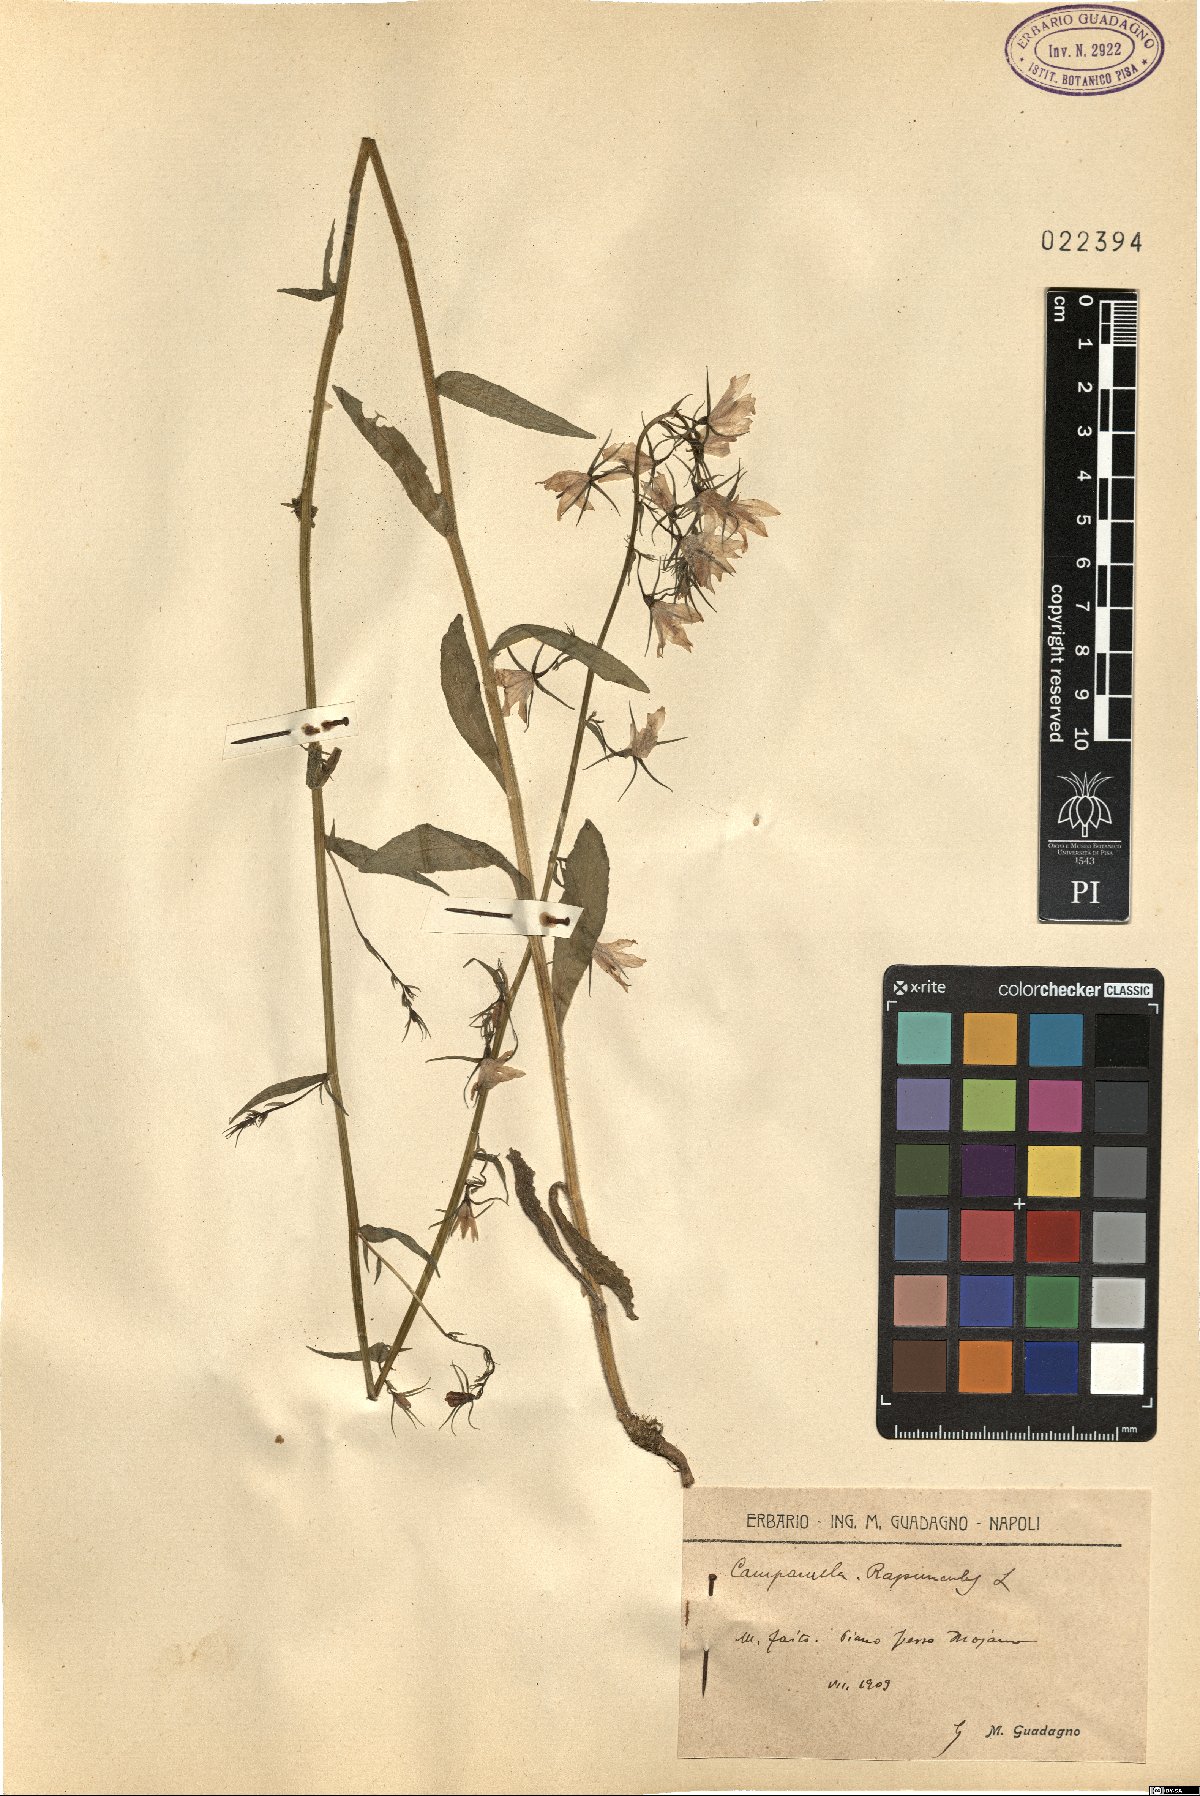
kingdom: Plantae
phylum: Tracheophyta
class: Magnoliopsida
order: Asterales
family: Campanulaceae
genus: Campanula
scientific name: Campanula rapunculus
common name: Rampion bellflower
